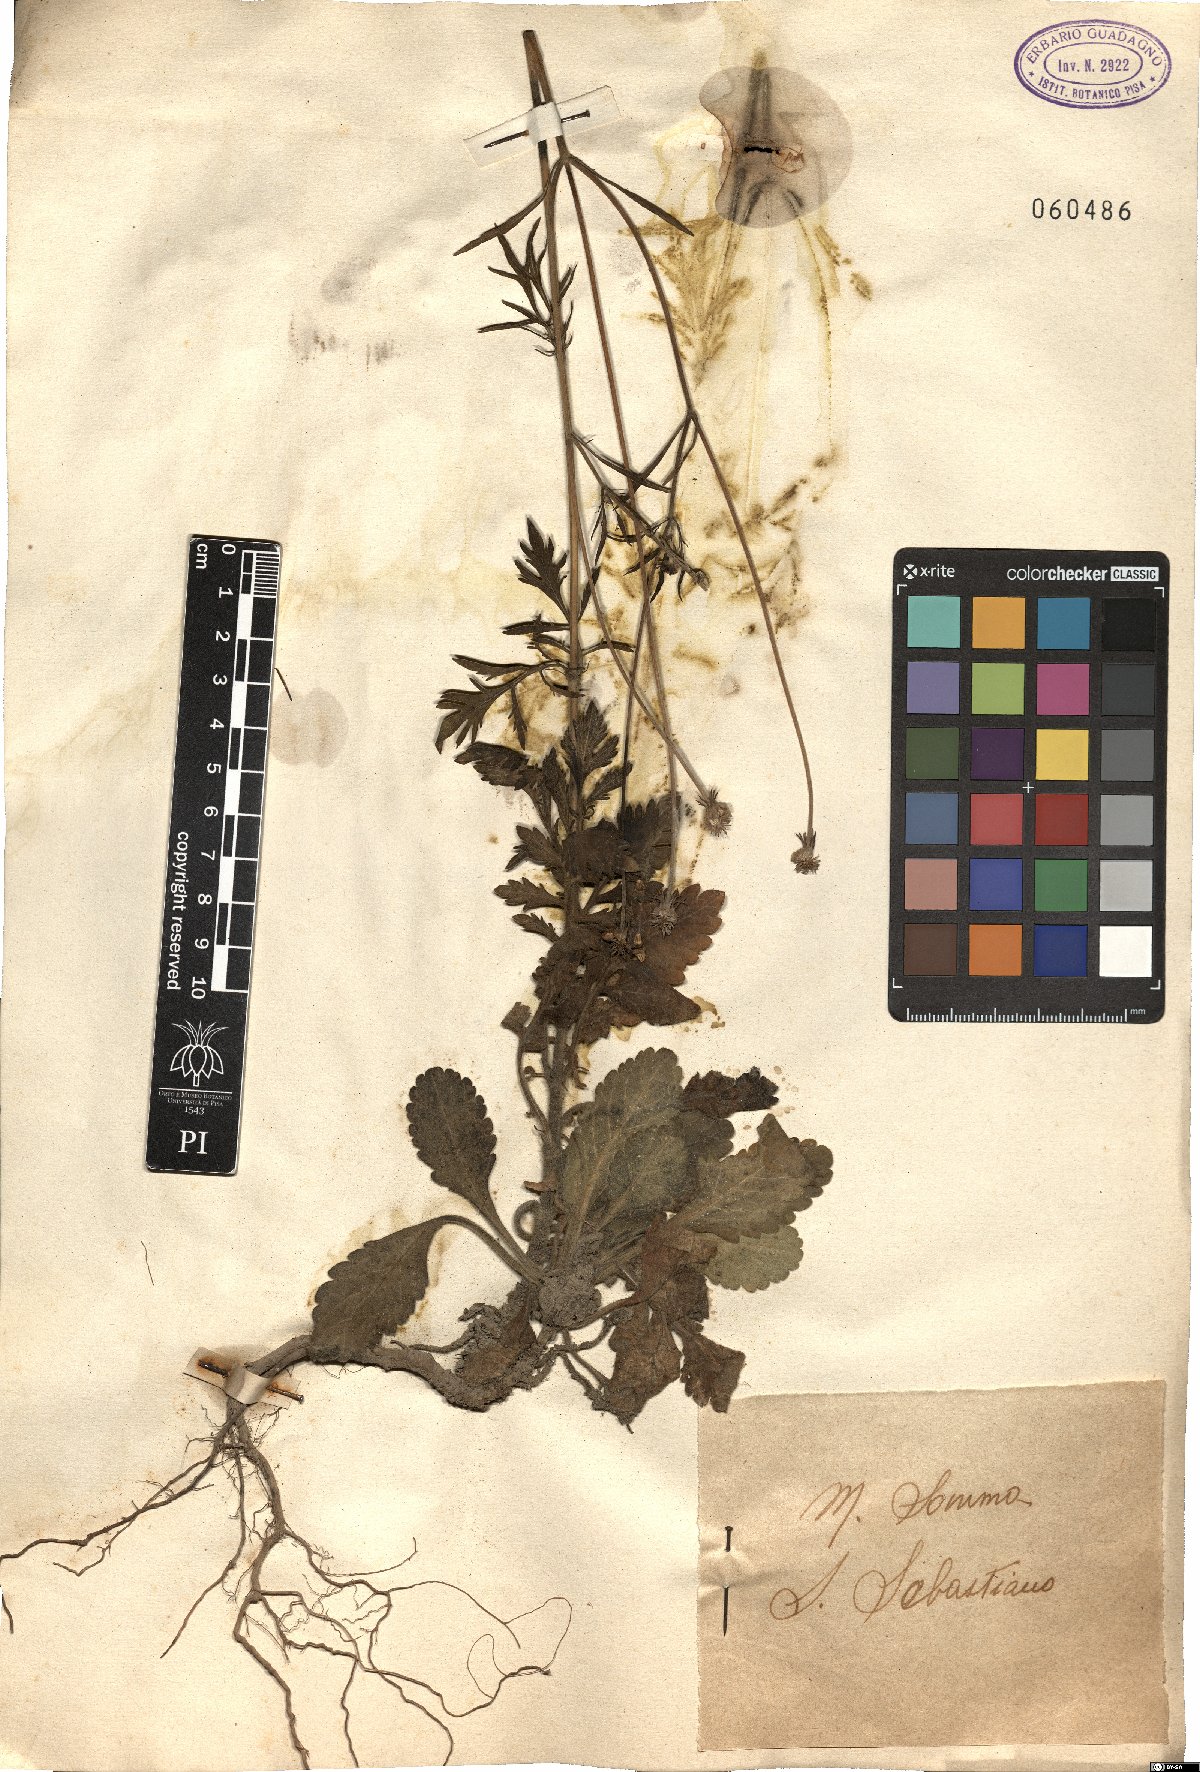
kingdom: Plantae
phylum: Tracheophyta
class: Magnoliopsida
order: Dipsacales
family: Caprifoliaceae
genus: Scabiosa
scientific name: Scabiosa
